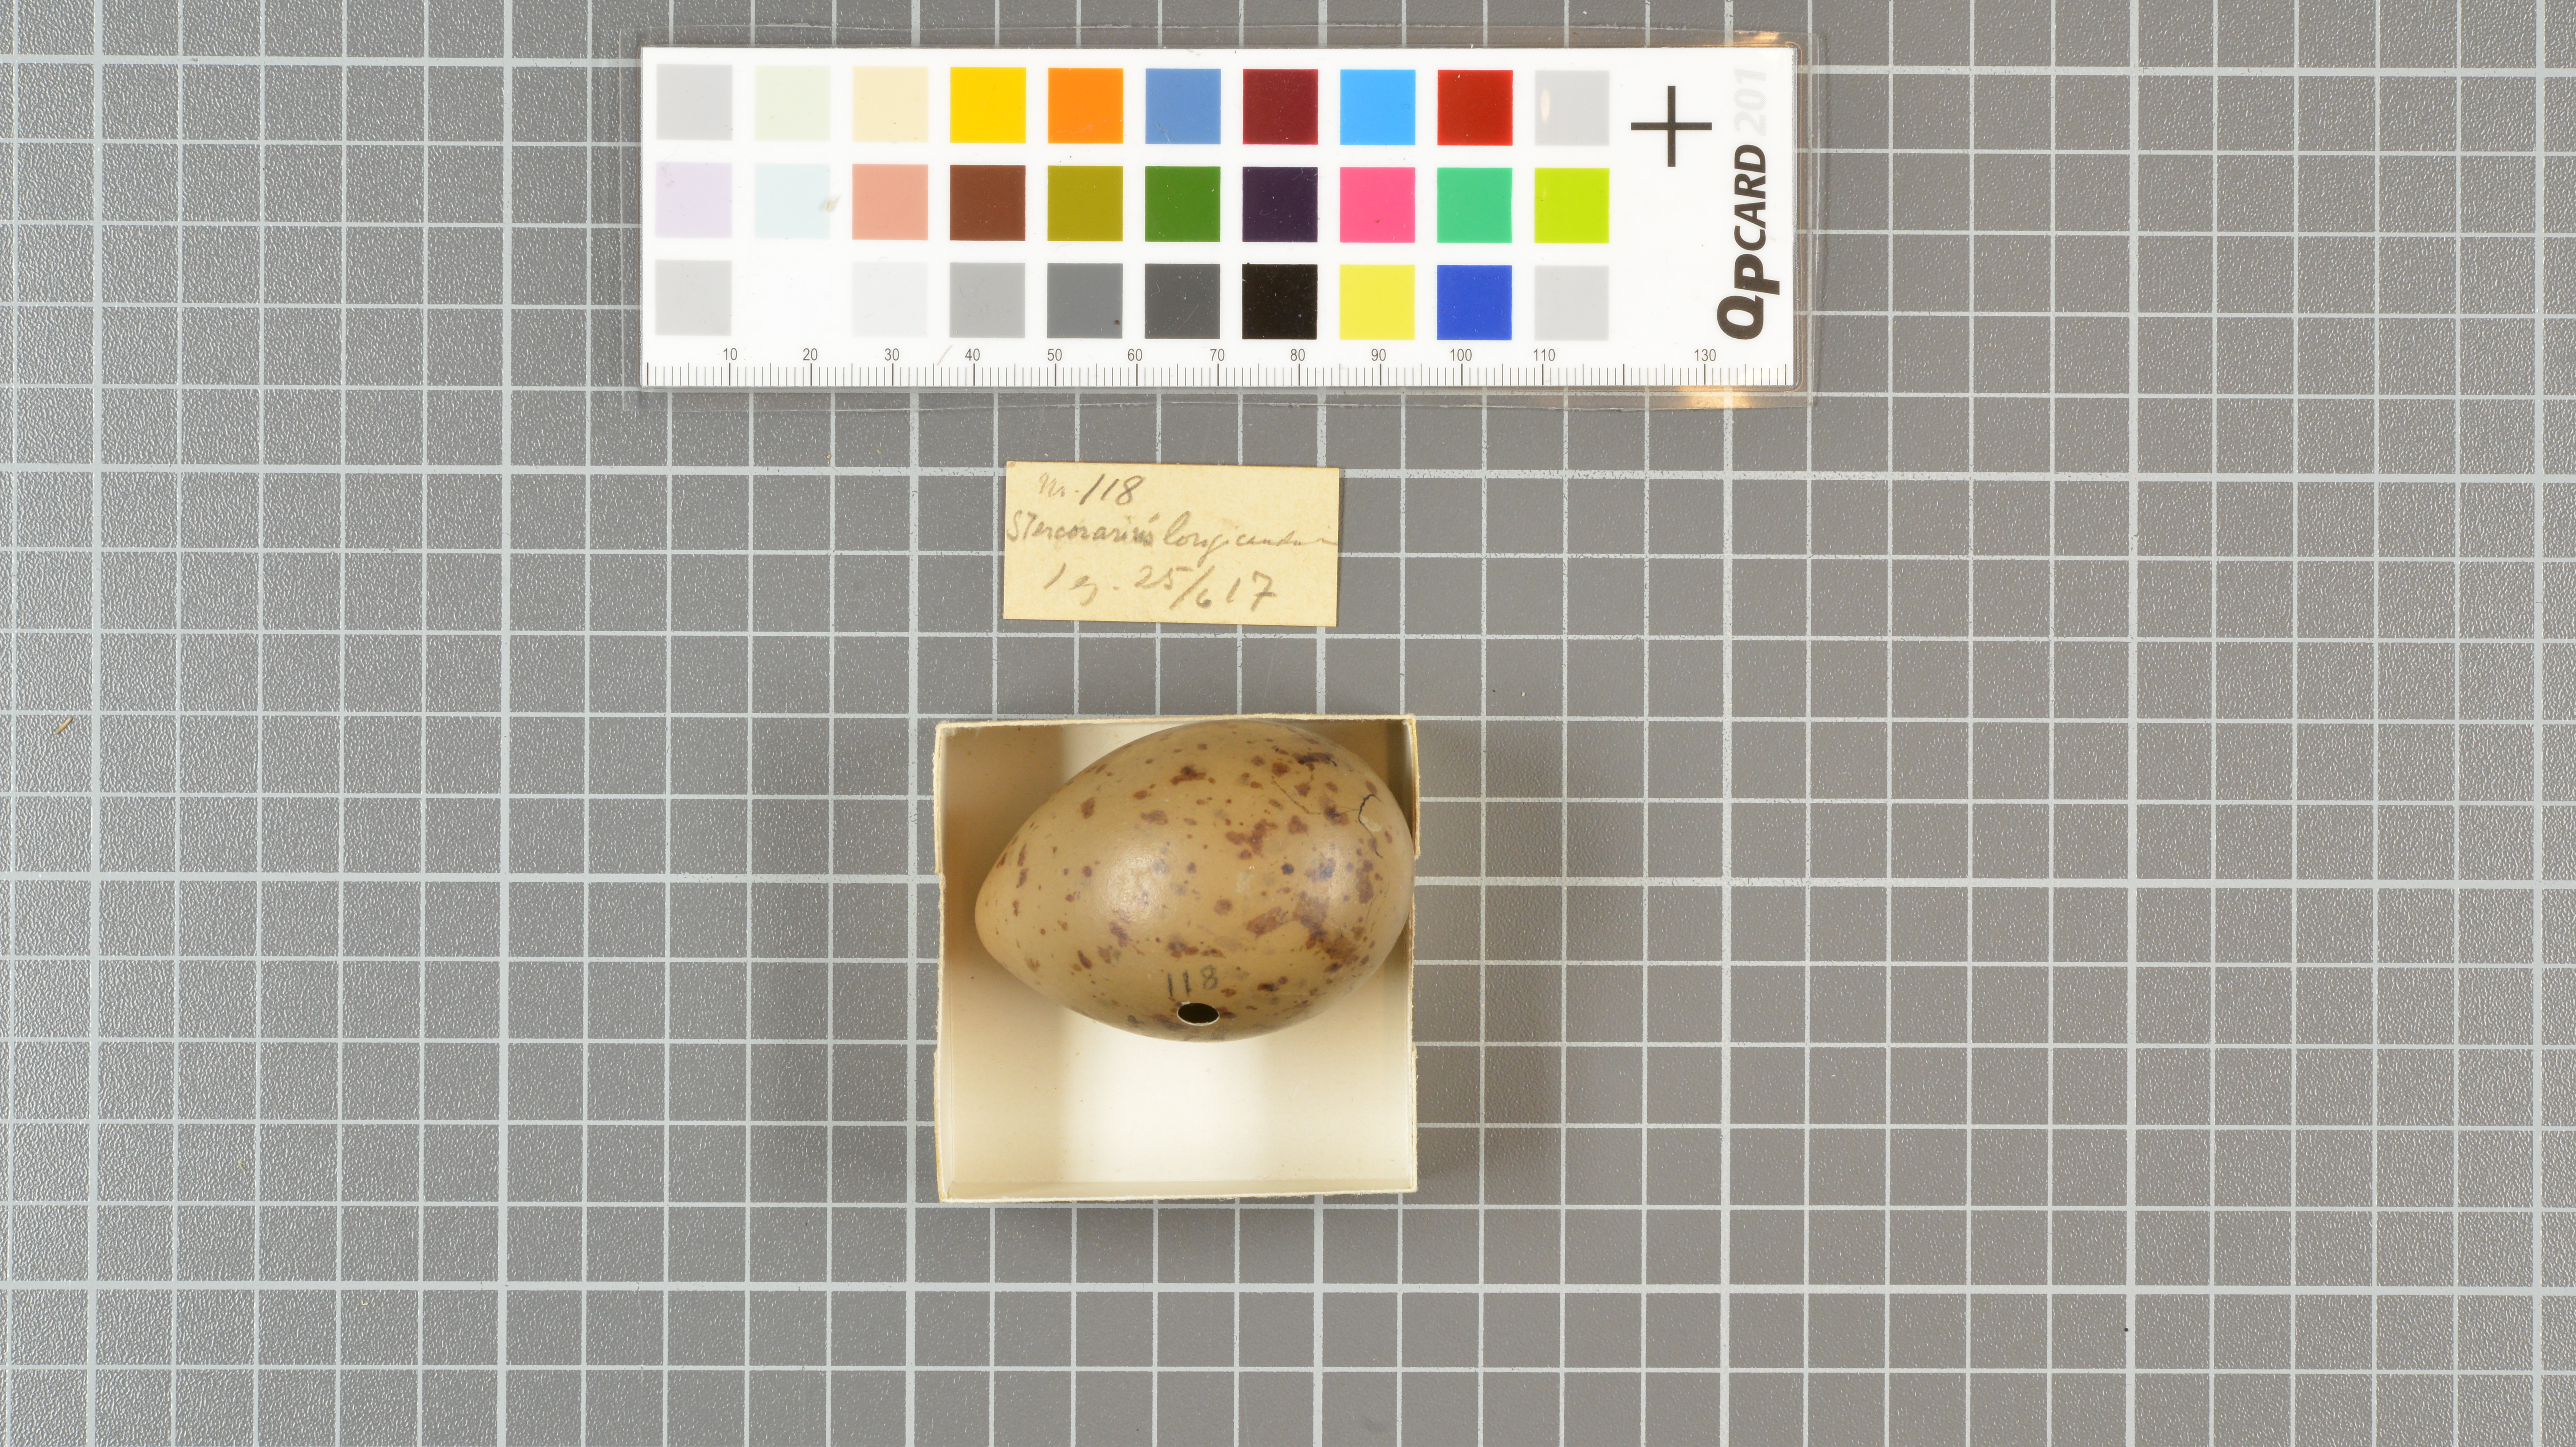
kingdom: Animalia
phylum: Chordata
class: Aves
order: Charadriiformes
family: Stercorariidae
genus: Stercorarius
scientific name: Stercorarius longicaudus
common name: Long-tailed jaeger
